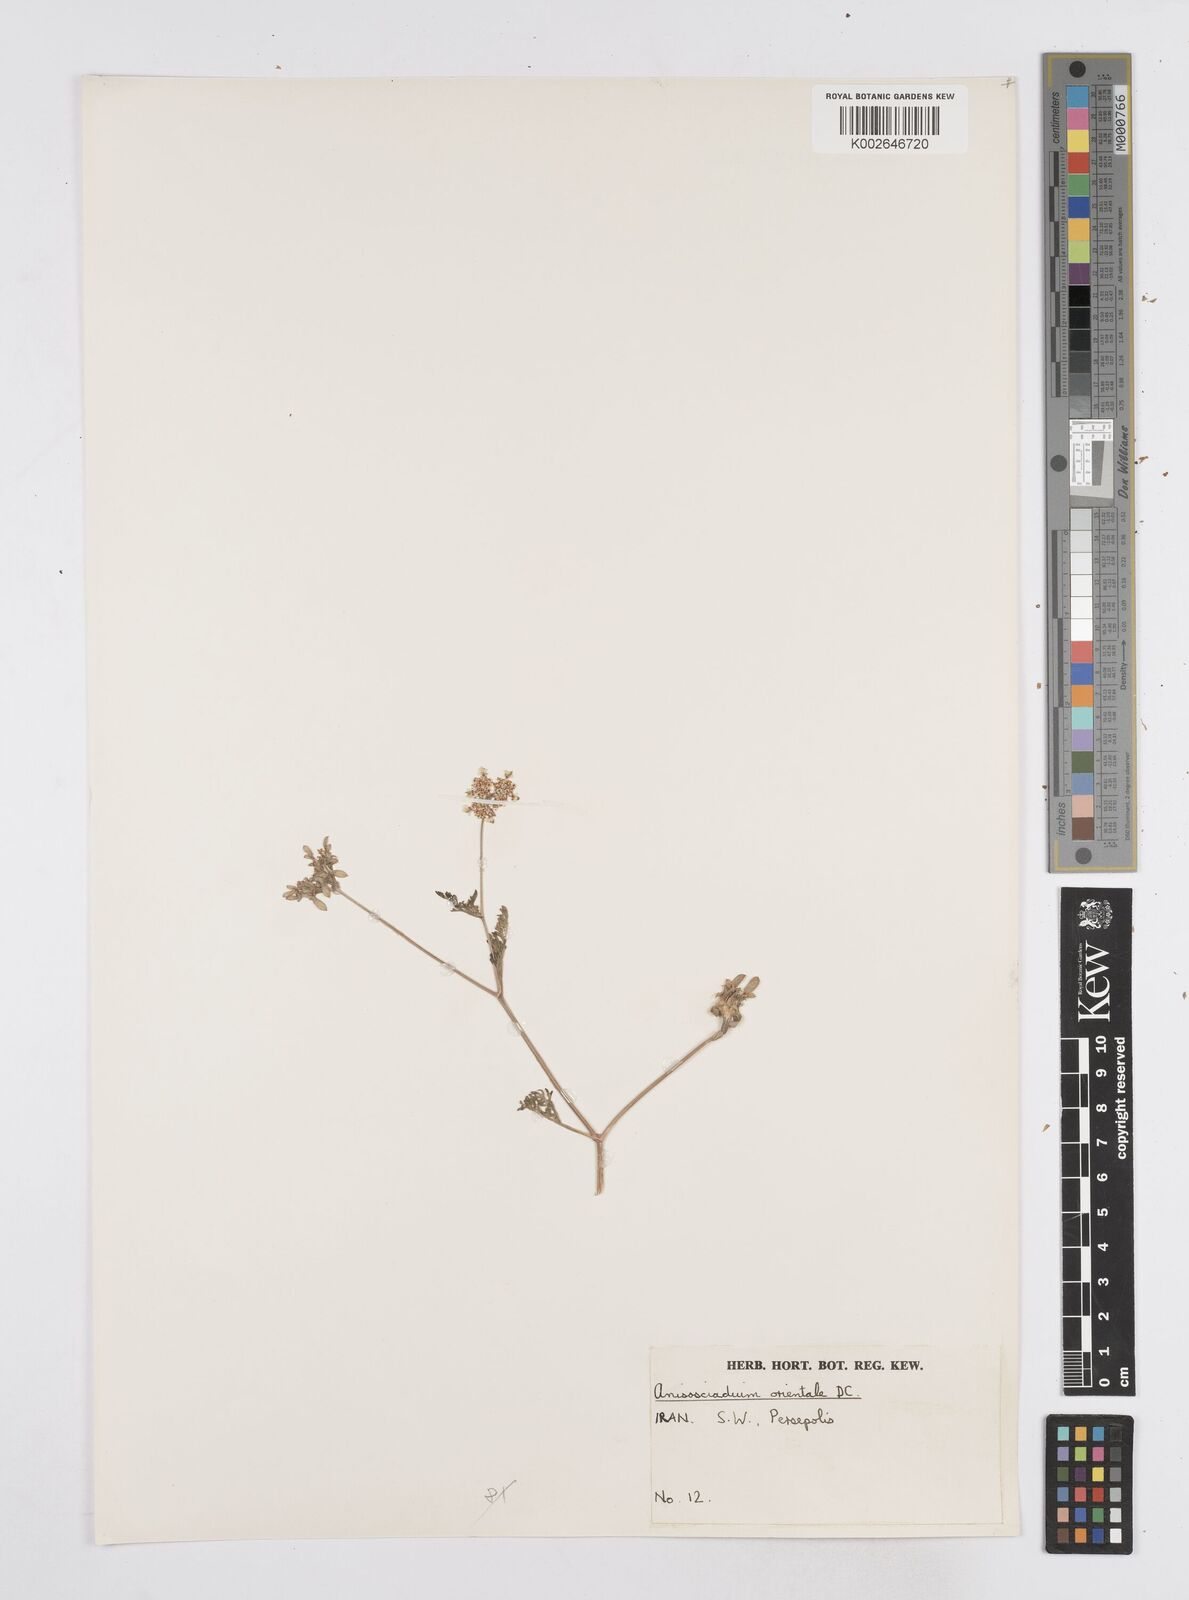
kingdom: Plantae
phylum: Tracheophyta
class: Magnoliopsida
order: Apiales
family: Apiaceae
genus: Anisosciadium
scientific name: Anisosciadium orientale
